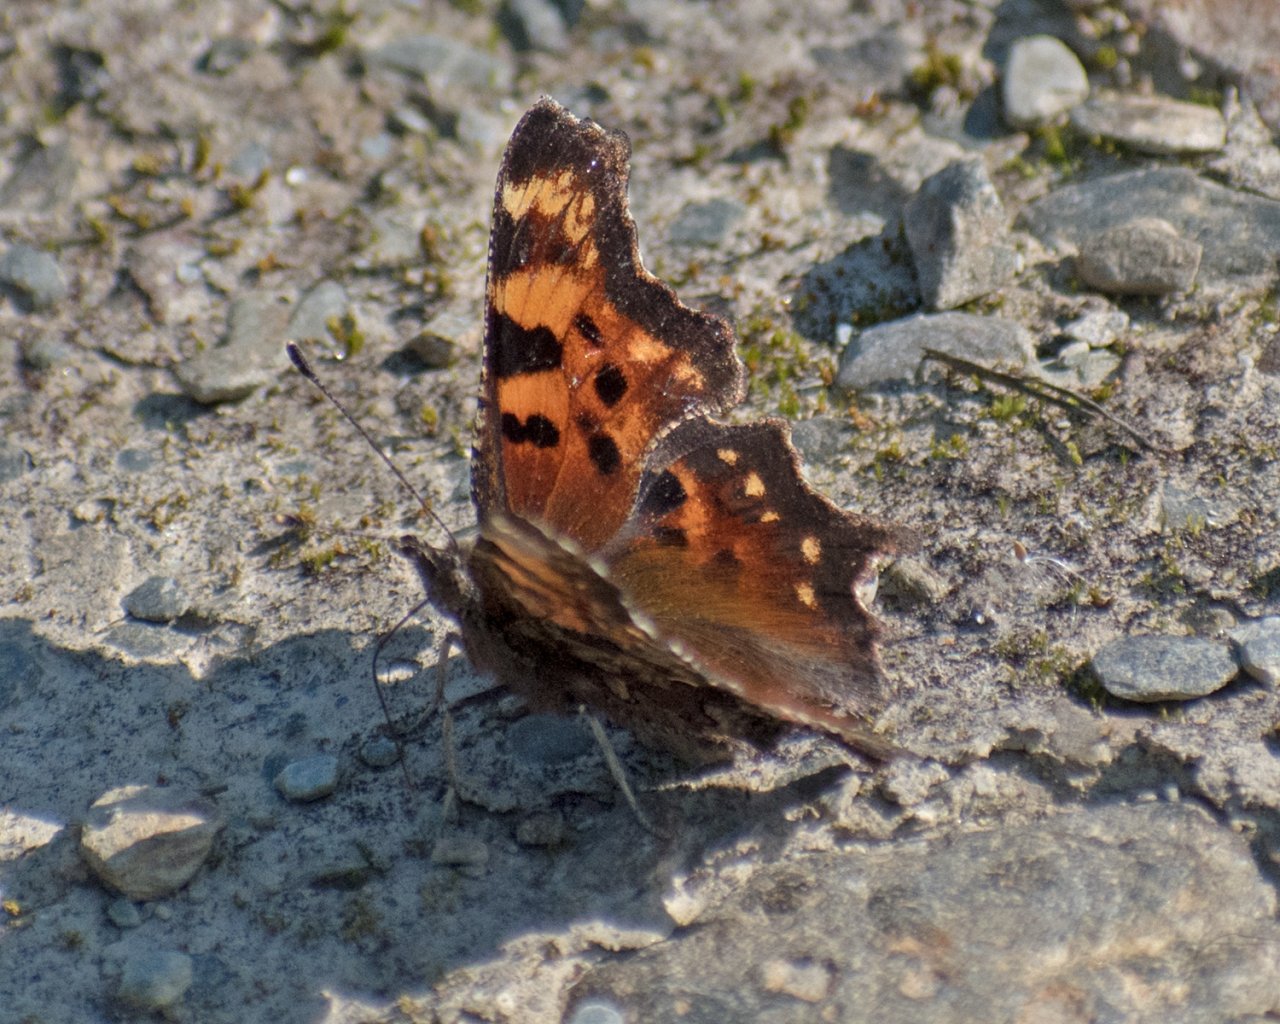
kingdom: Animalia
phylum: Arthropoda
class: Insecta
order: Lepidoptera
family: Nymphalidae
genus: Polygonia
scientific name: Polygonia faunus
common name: Green Comma
